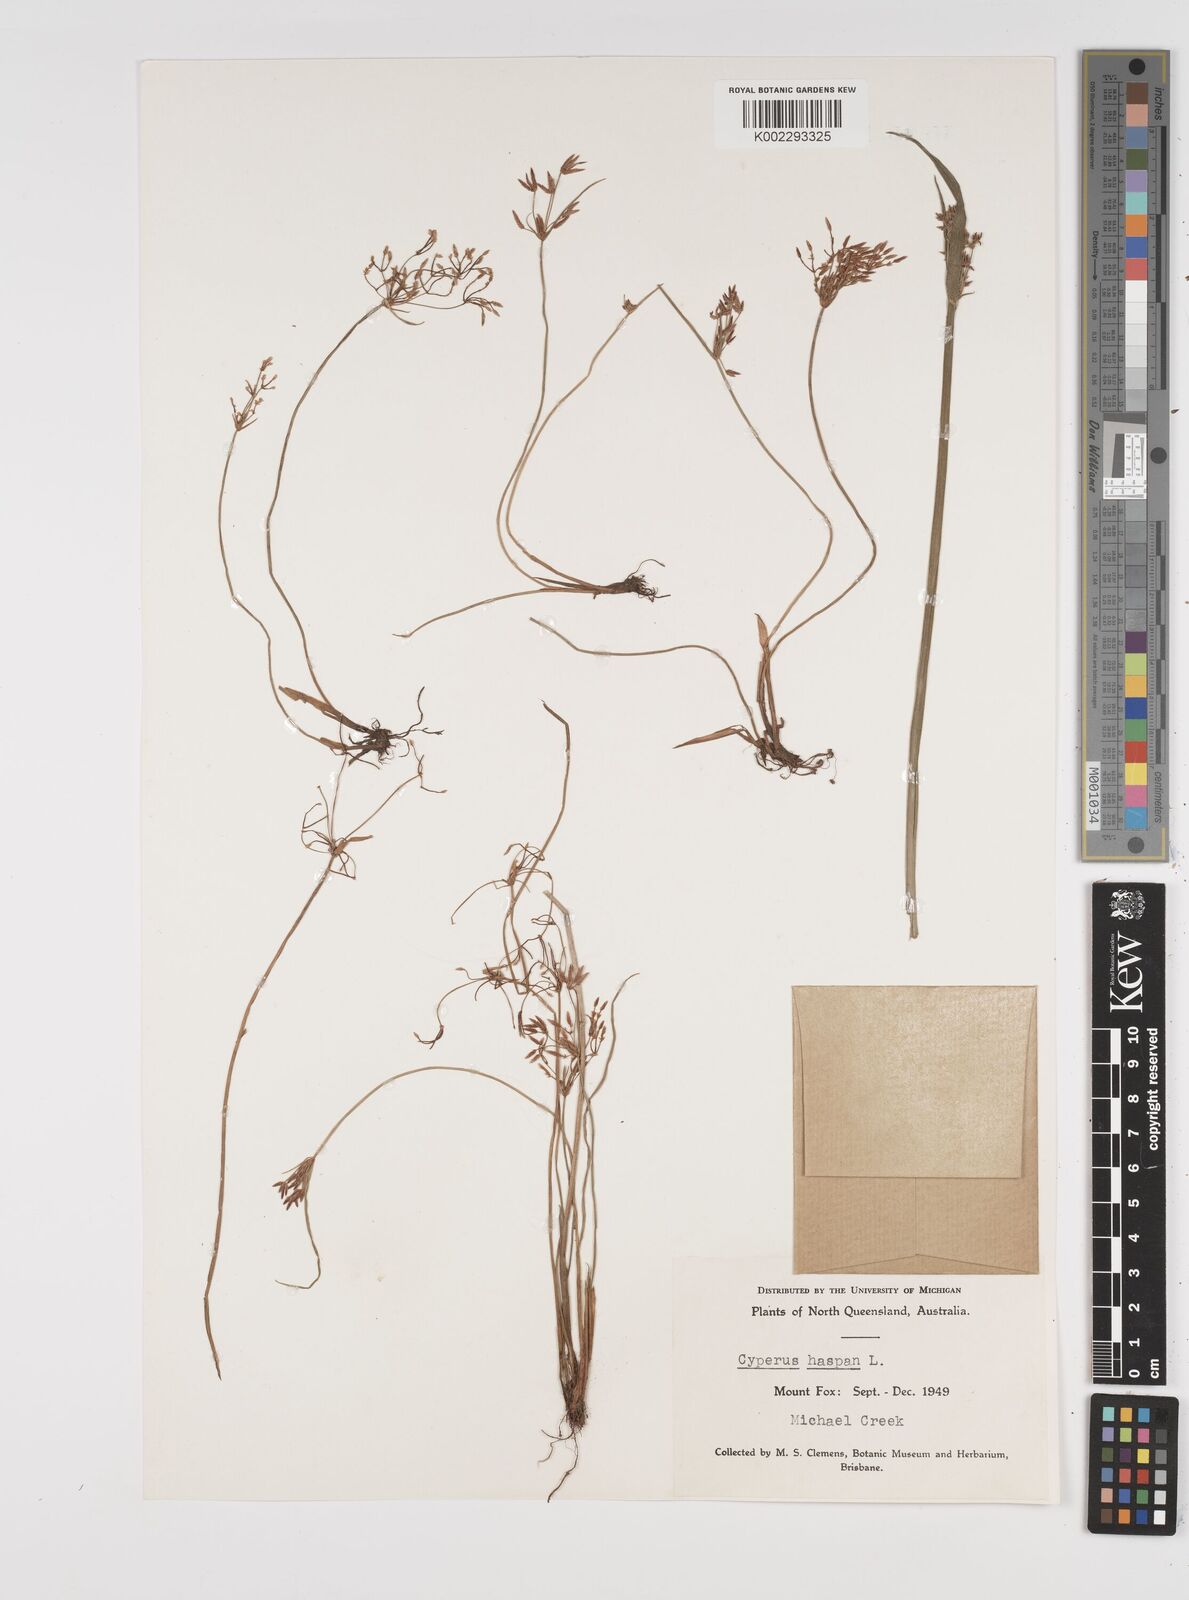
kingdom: Plantae
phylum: Tracheophyta
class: Liliopsida
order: Poales
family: Cyperaceae
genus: Cyperus
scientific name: Cyperus haspan
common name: Haspan flatsedge
